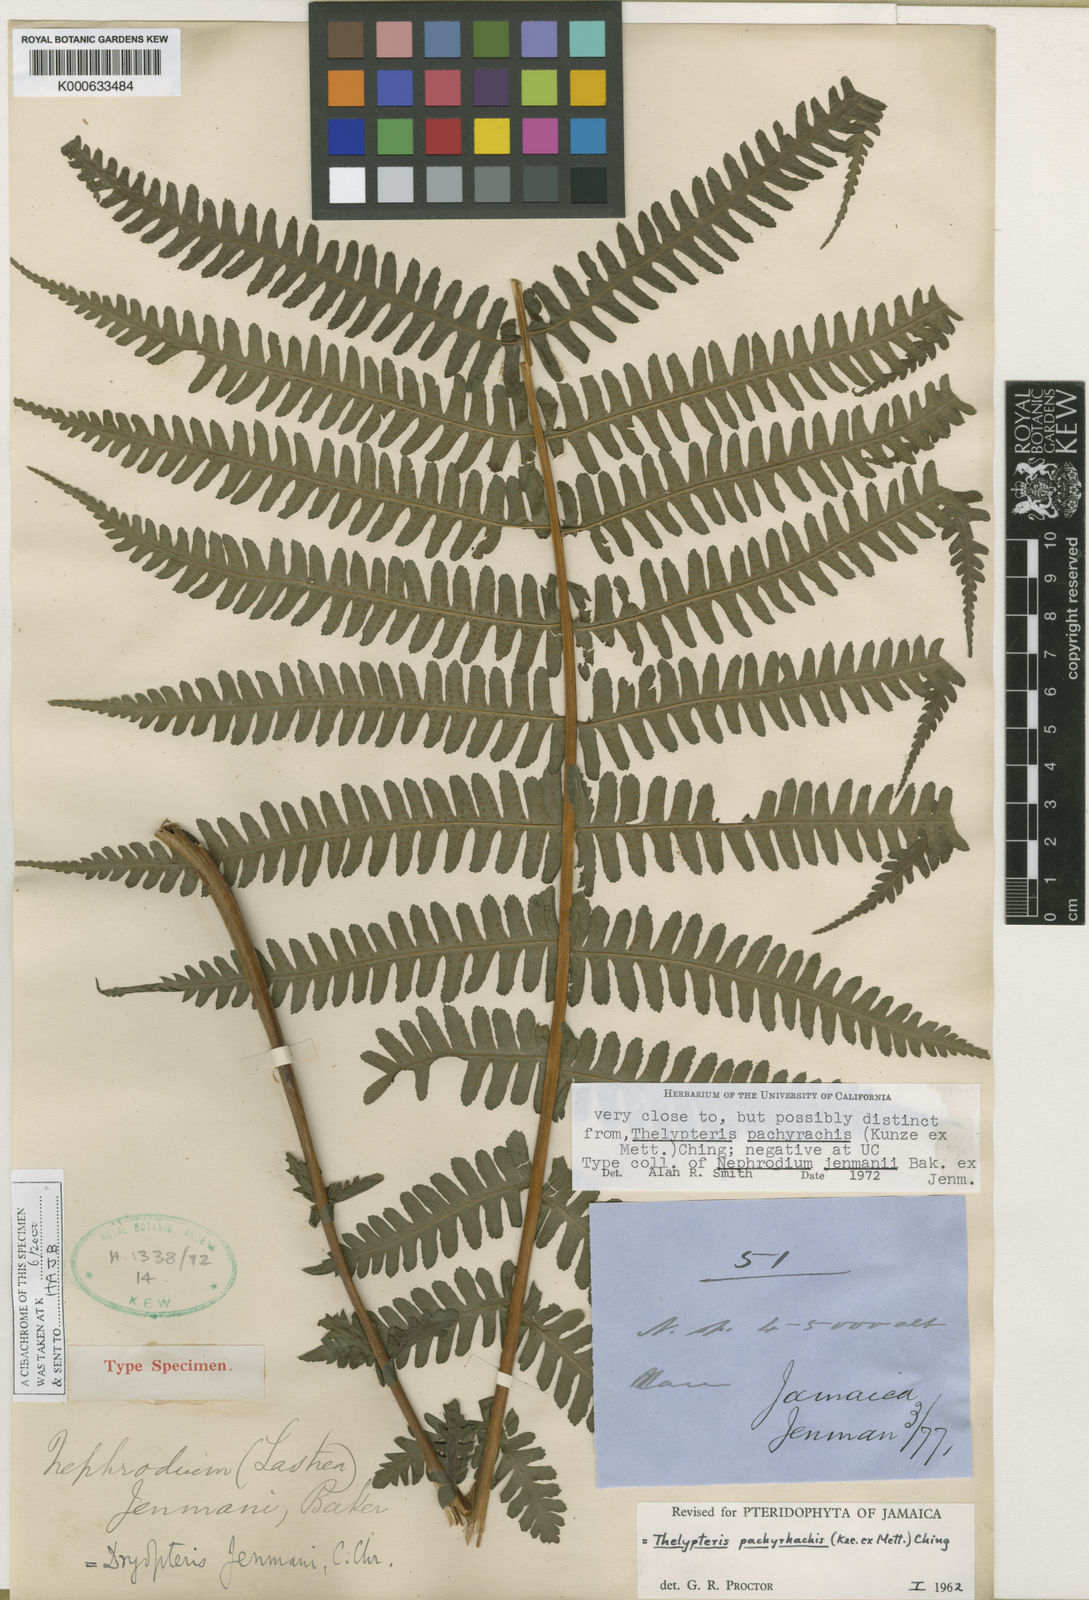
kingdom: Plantae
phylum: Tracheophyta
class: Polypodiopsida
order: Polypodiales
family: Thelypteridaceae
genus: Amauropelta
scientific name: Amauropelta
